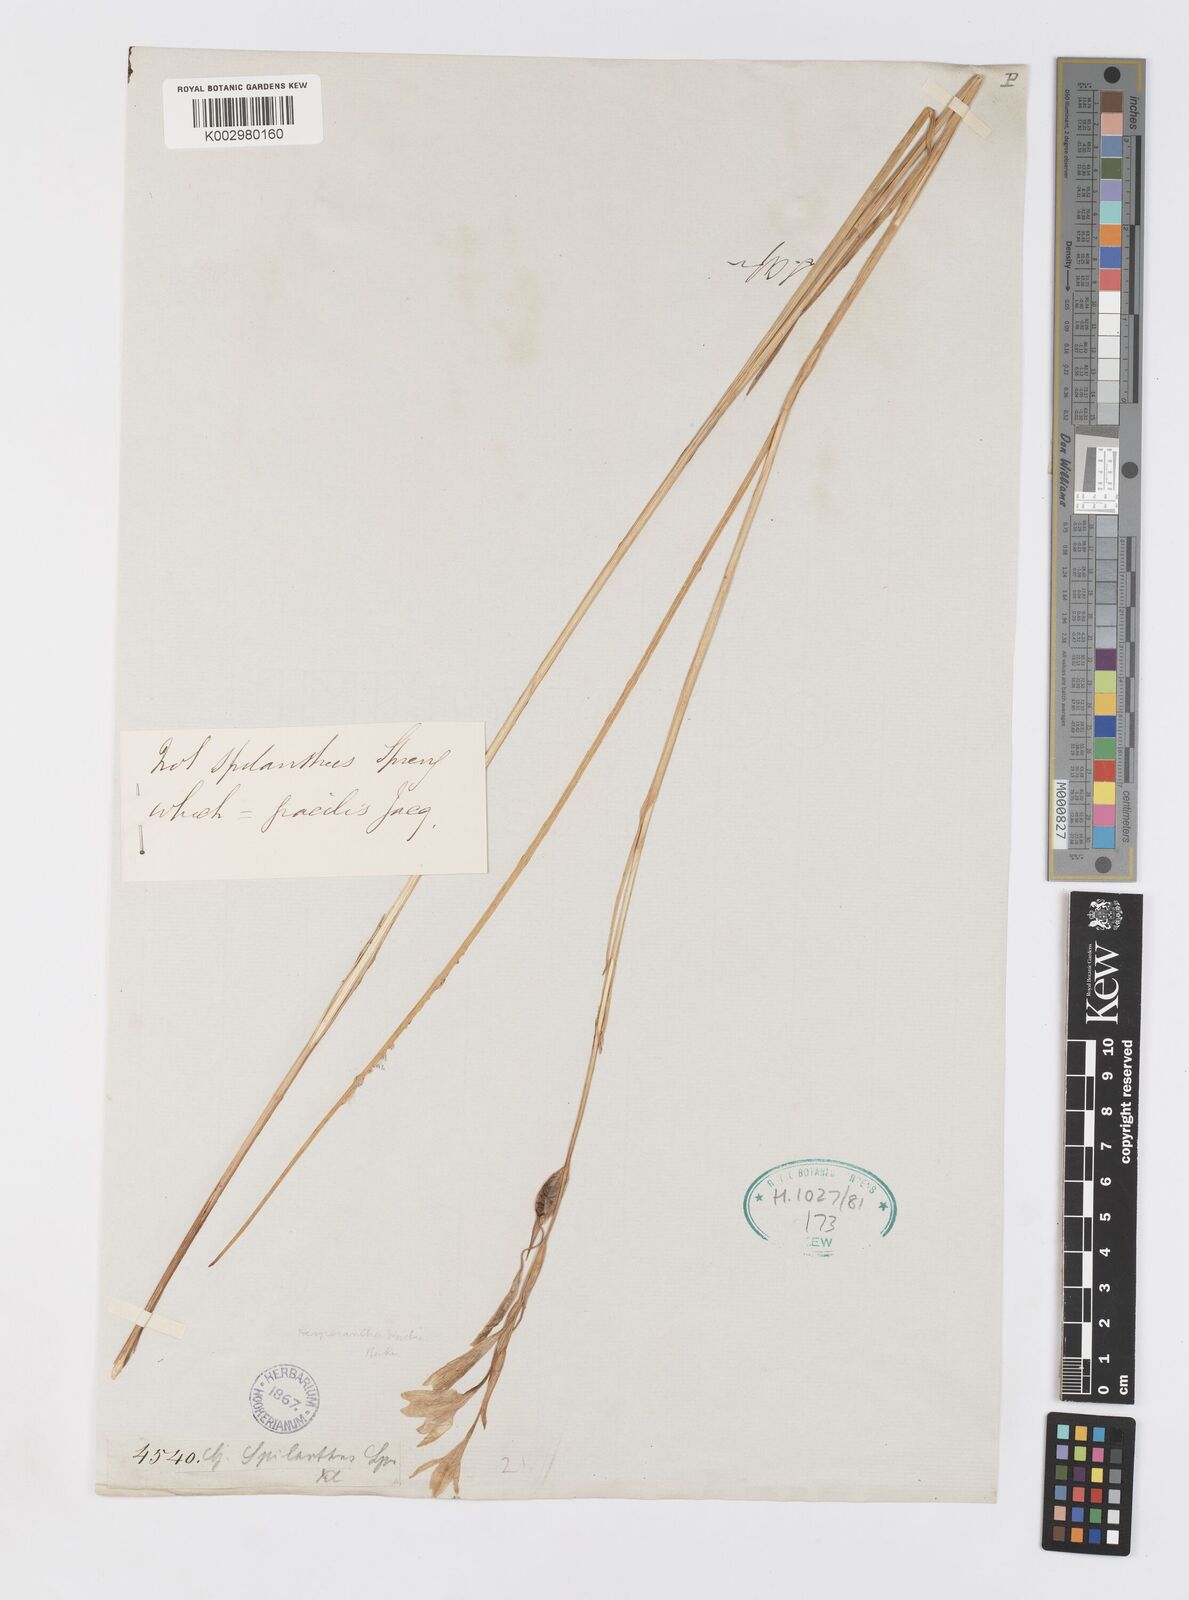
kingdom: Plantae
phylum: Tracheophyta
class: Liliopsida
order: Asparagales
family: Iridaceae
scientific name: Iridaceae
